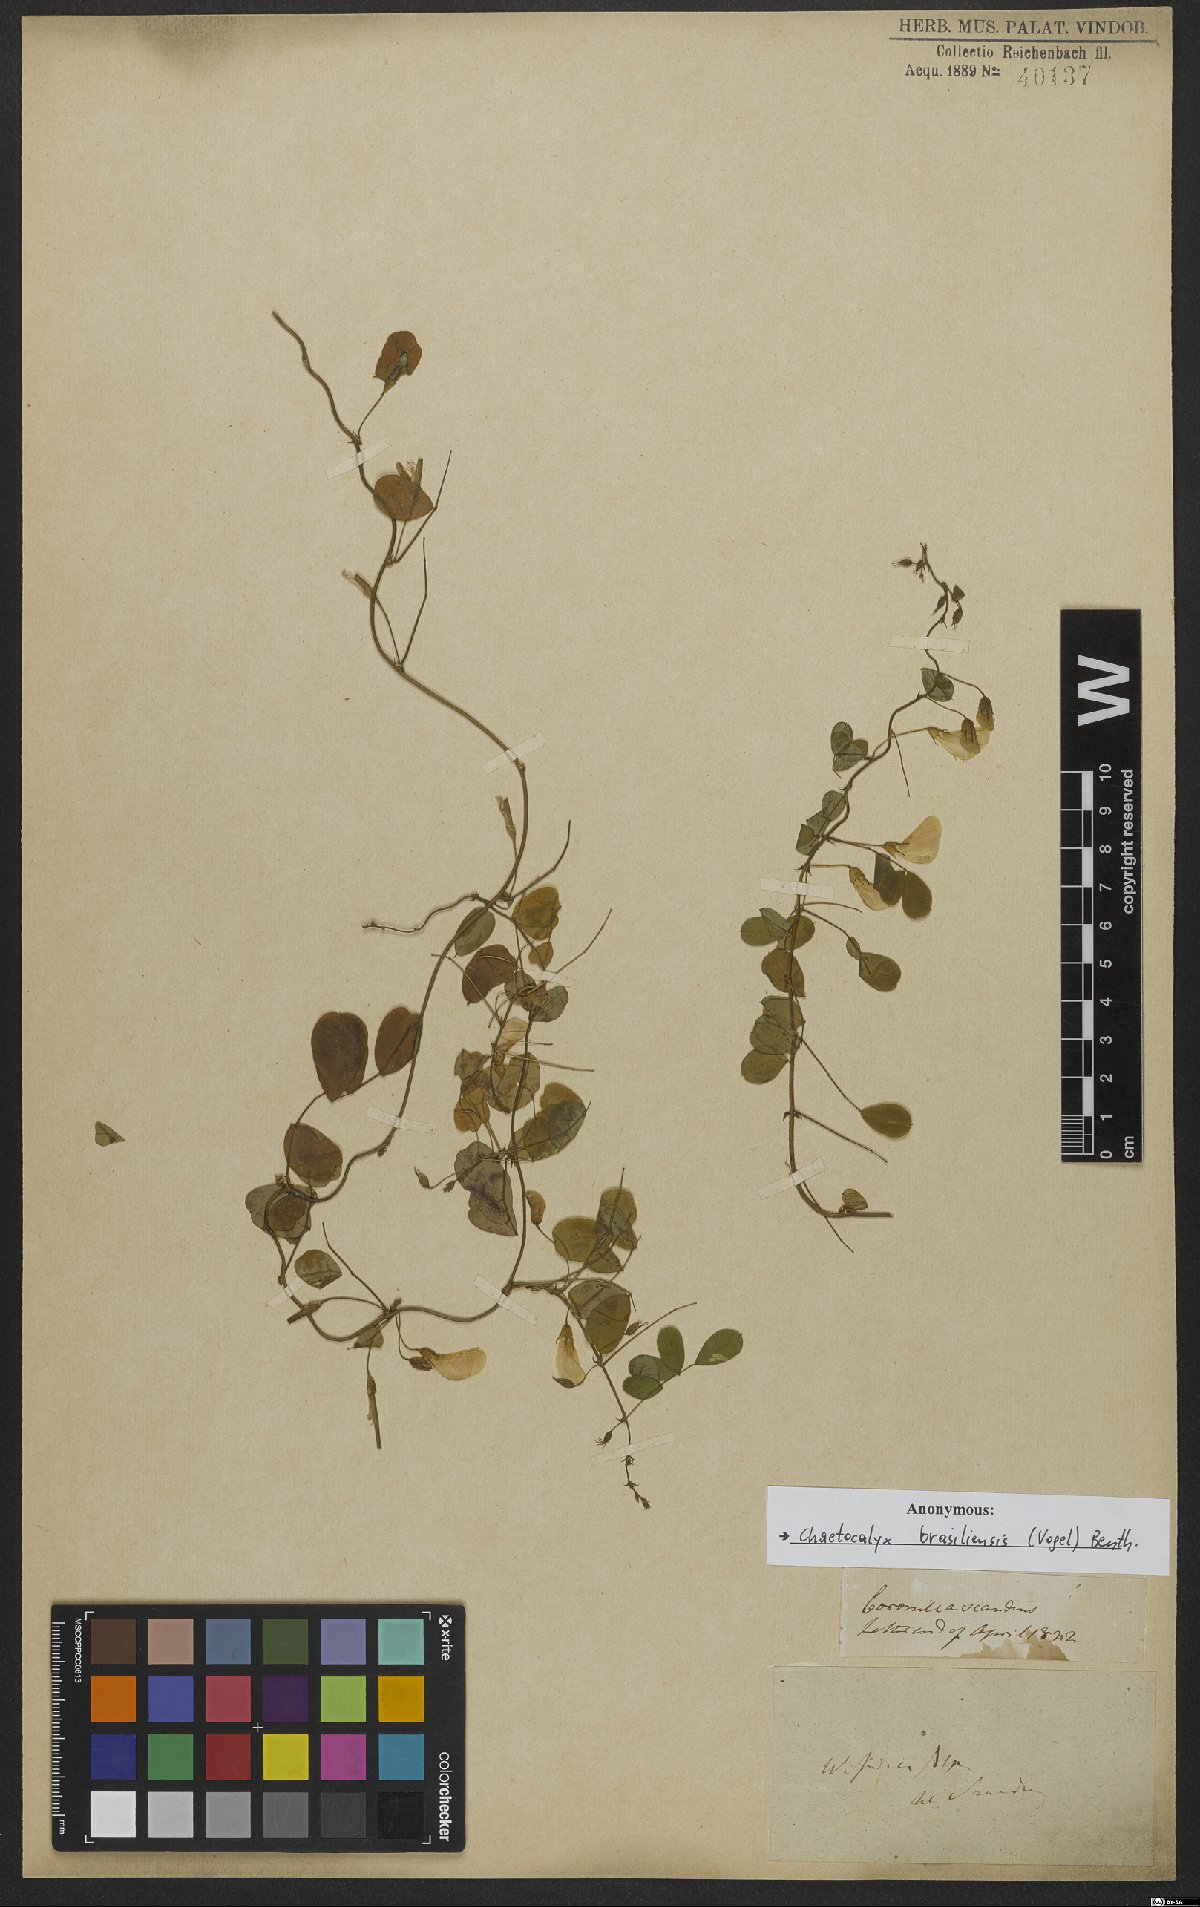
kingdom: Plantae
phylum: Tracheophyta
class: Magnoliopsida
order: Fabales
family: Fabaceae
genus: Nissolia
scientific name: Nissolia brasiliensis
